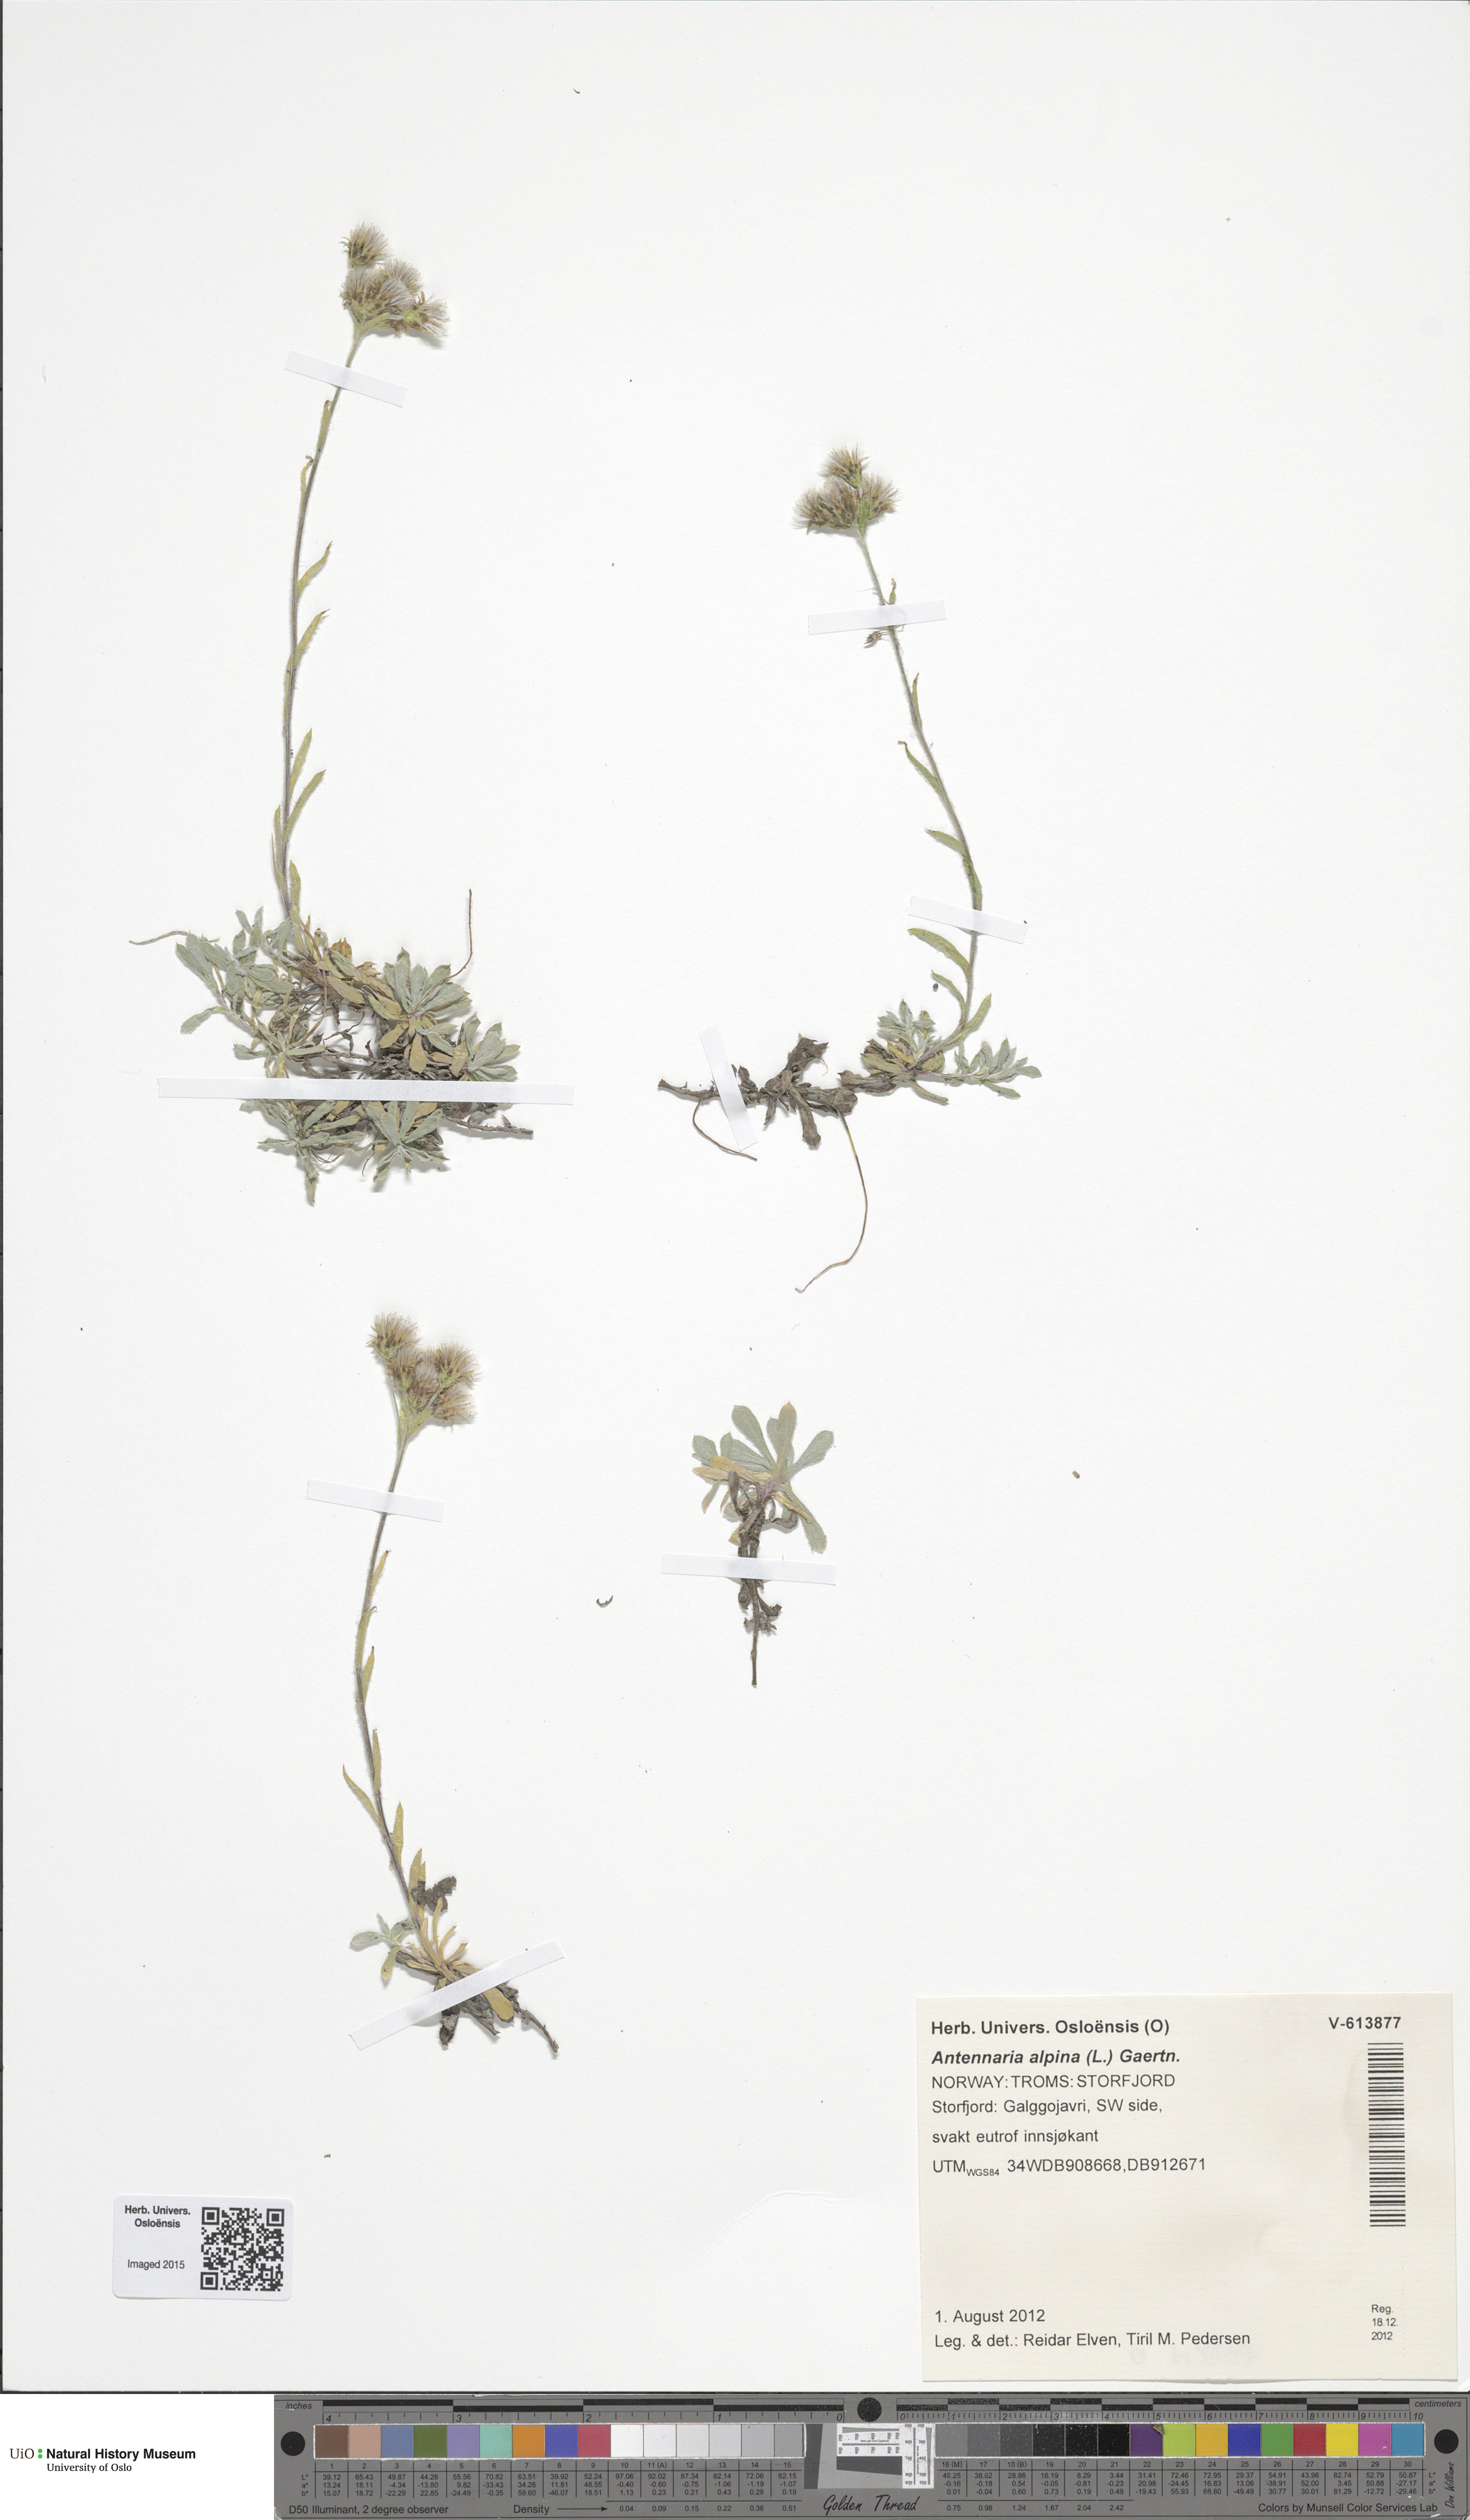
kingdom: Plantae
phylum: Tracheophyta
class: Magnoliopsida
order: Asterales
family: Asteraceae
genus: Antennaria
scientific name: Antennaria alpina
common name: Alpine pussytoes
